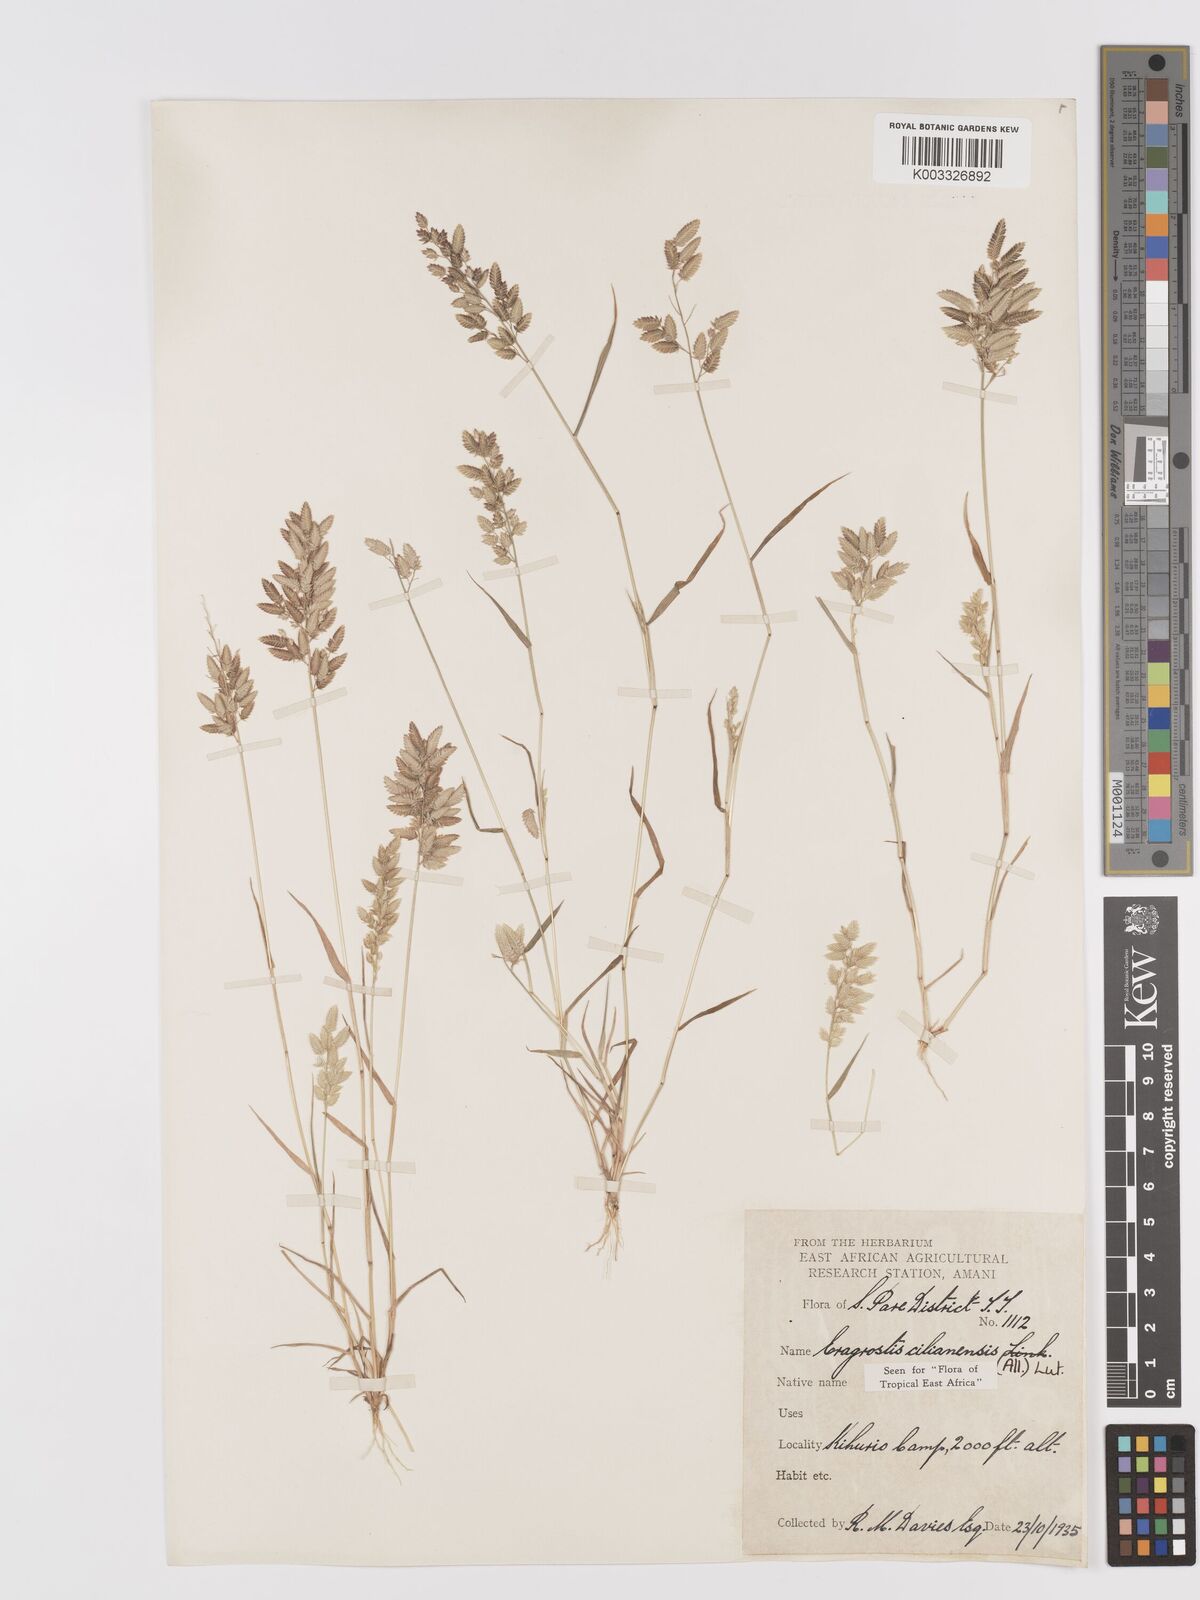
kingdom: Plantae
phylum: Tracheophyta
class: Liliopsida
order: Poales
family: Poaceae
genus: Eragrostis
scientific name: Eragrostis cilianensis
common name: Stinkgrass
